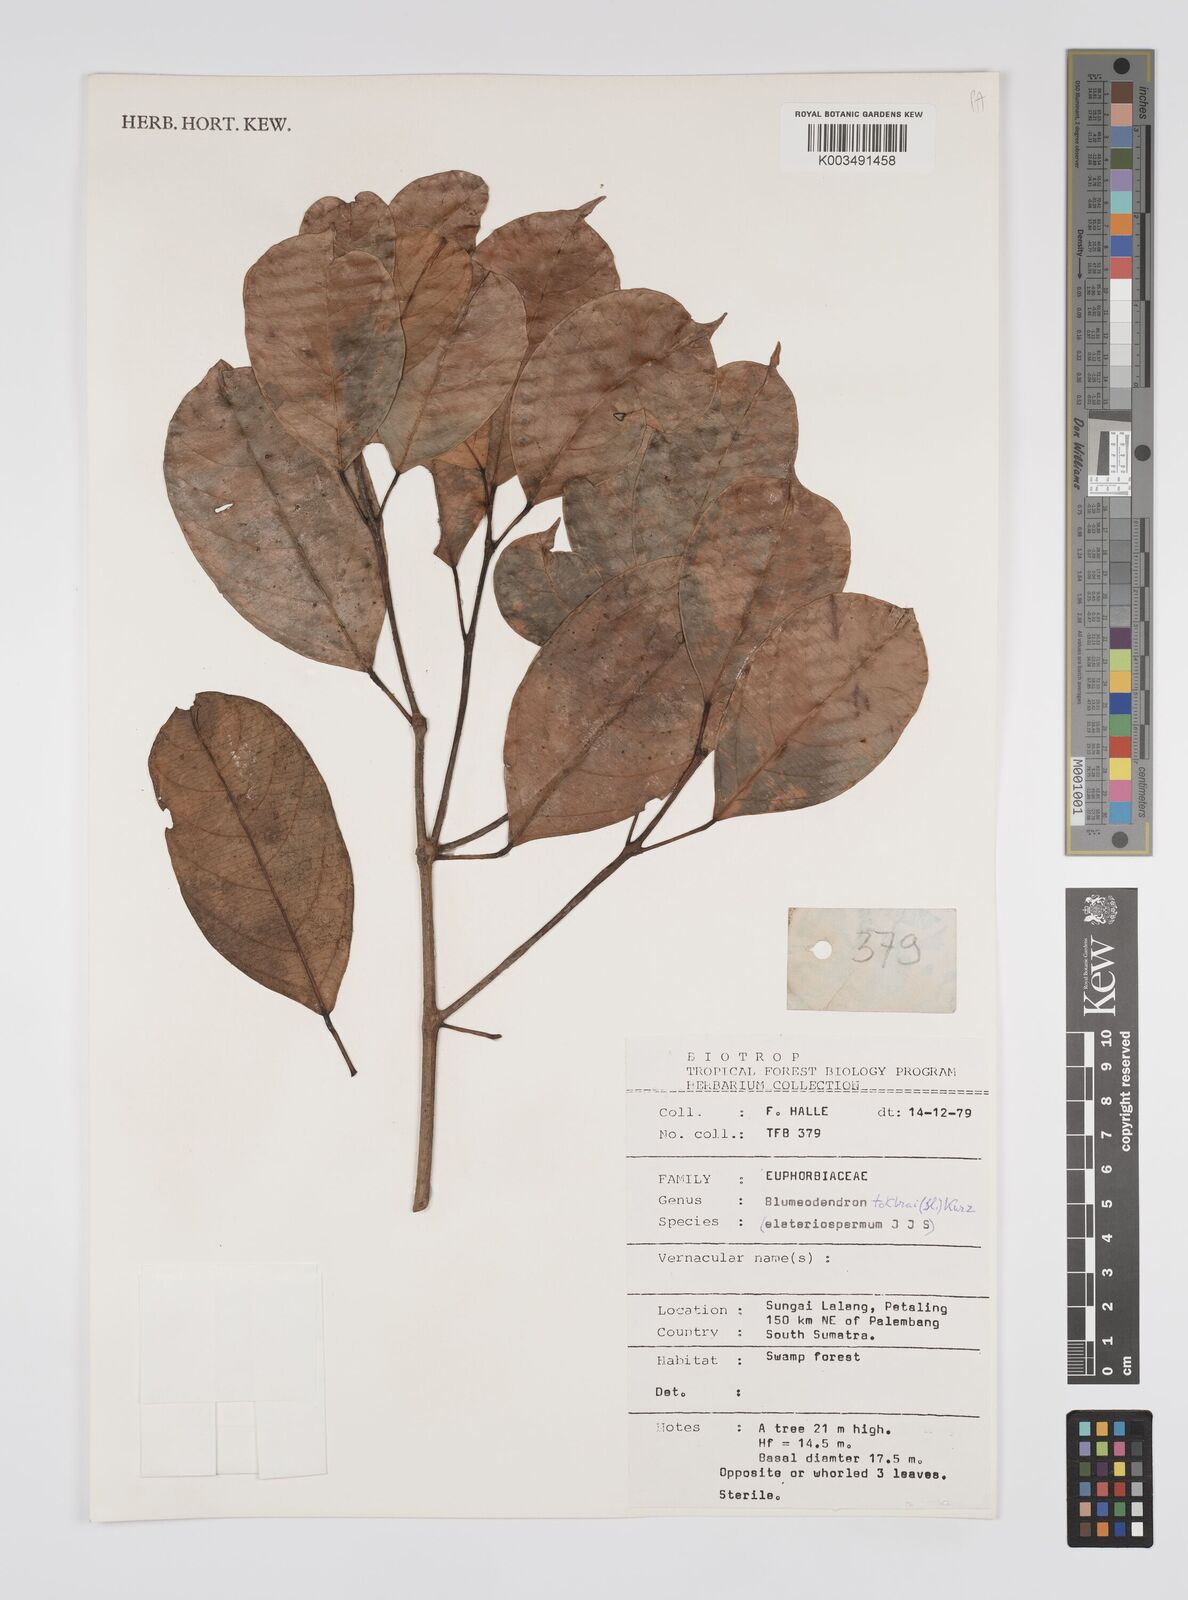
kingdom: Plantae
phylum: Tracheophyta
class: Magnoliopsida
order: Malpighiales
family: Euphorbiaceae
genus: Blumeodendron
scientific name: Blumeodendron tokbrai
